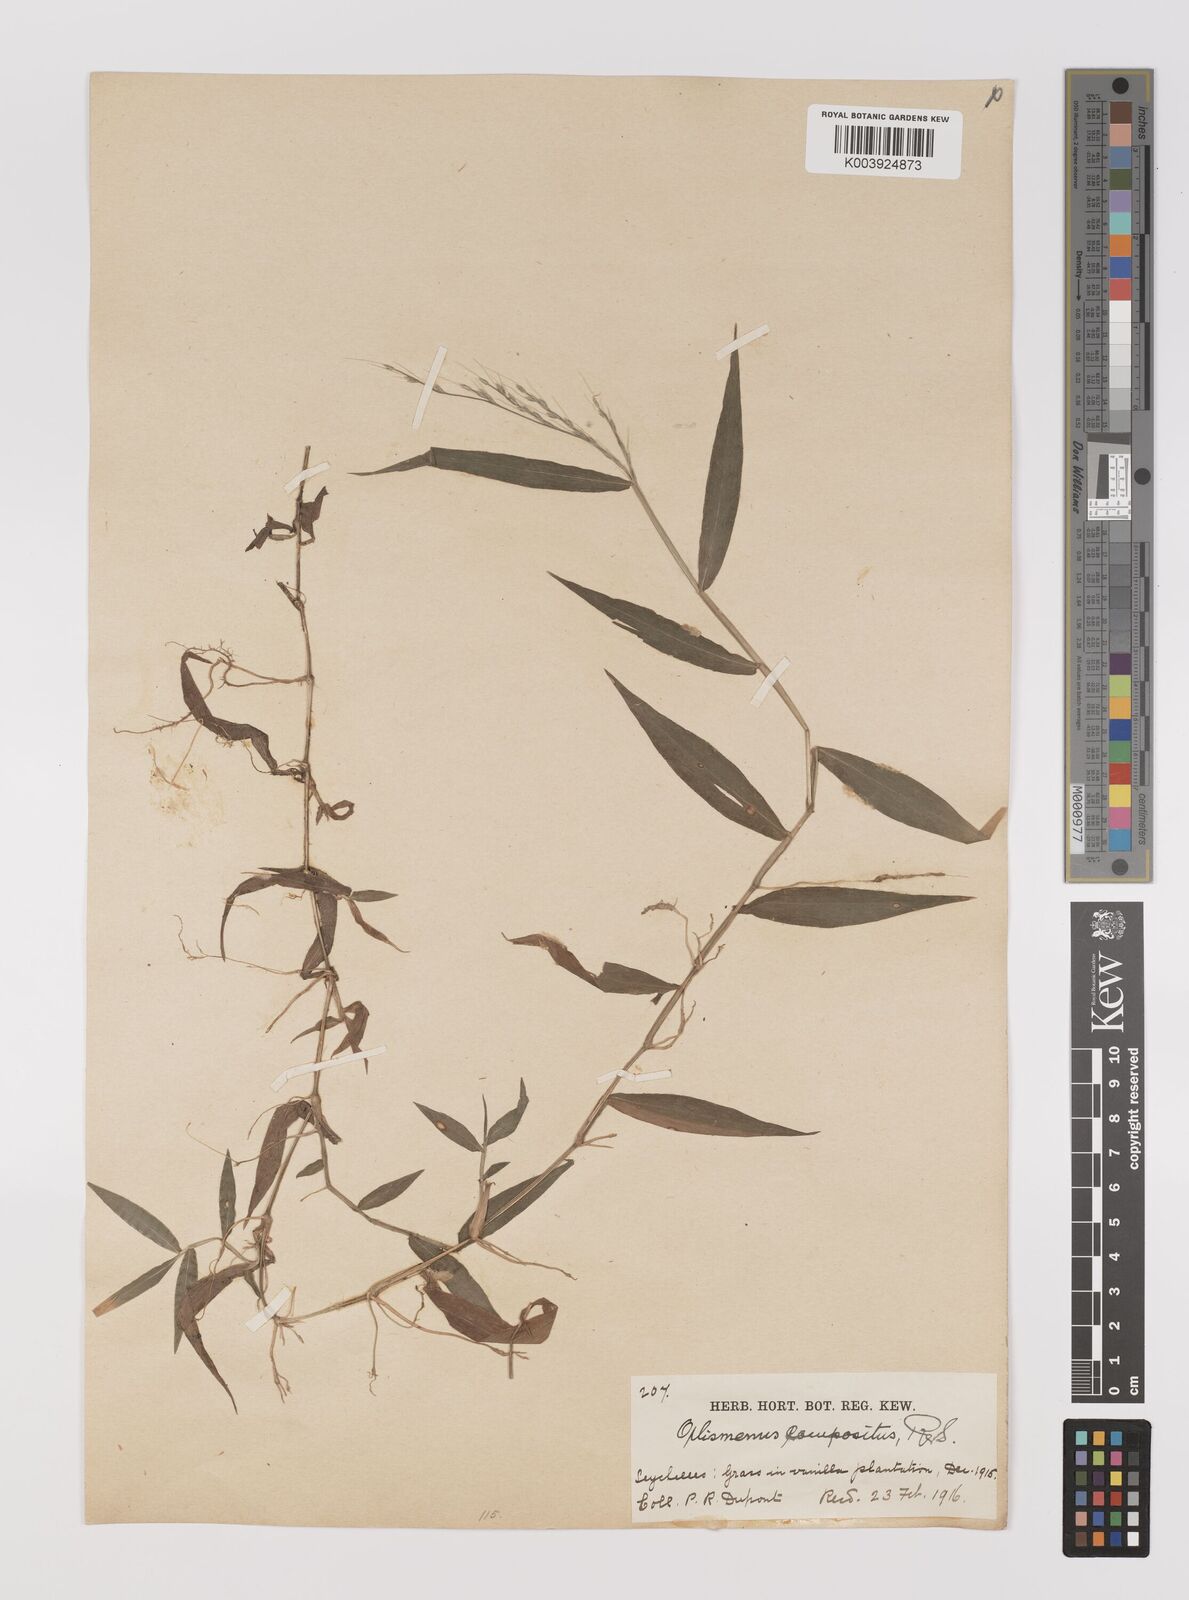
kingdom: Plantae
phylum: Tracheophyta
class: Liliopsida
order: Poales
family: Poaceae
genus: Oplismenus
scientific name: Oplismenus compositus
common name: Running mountain grass
